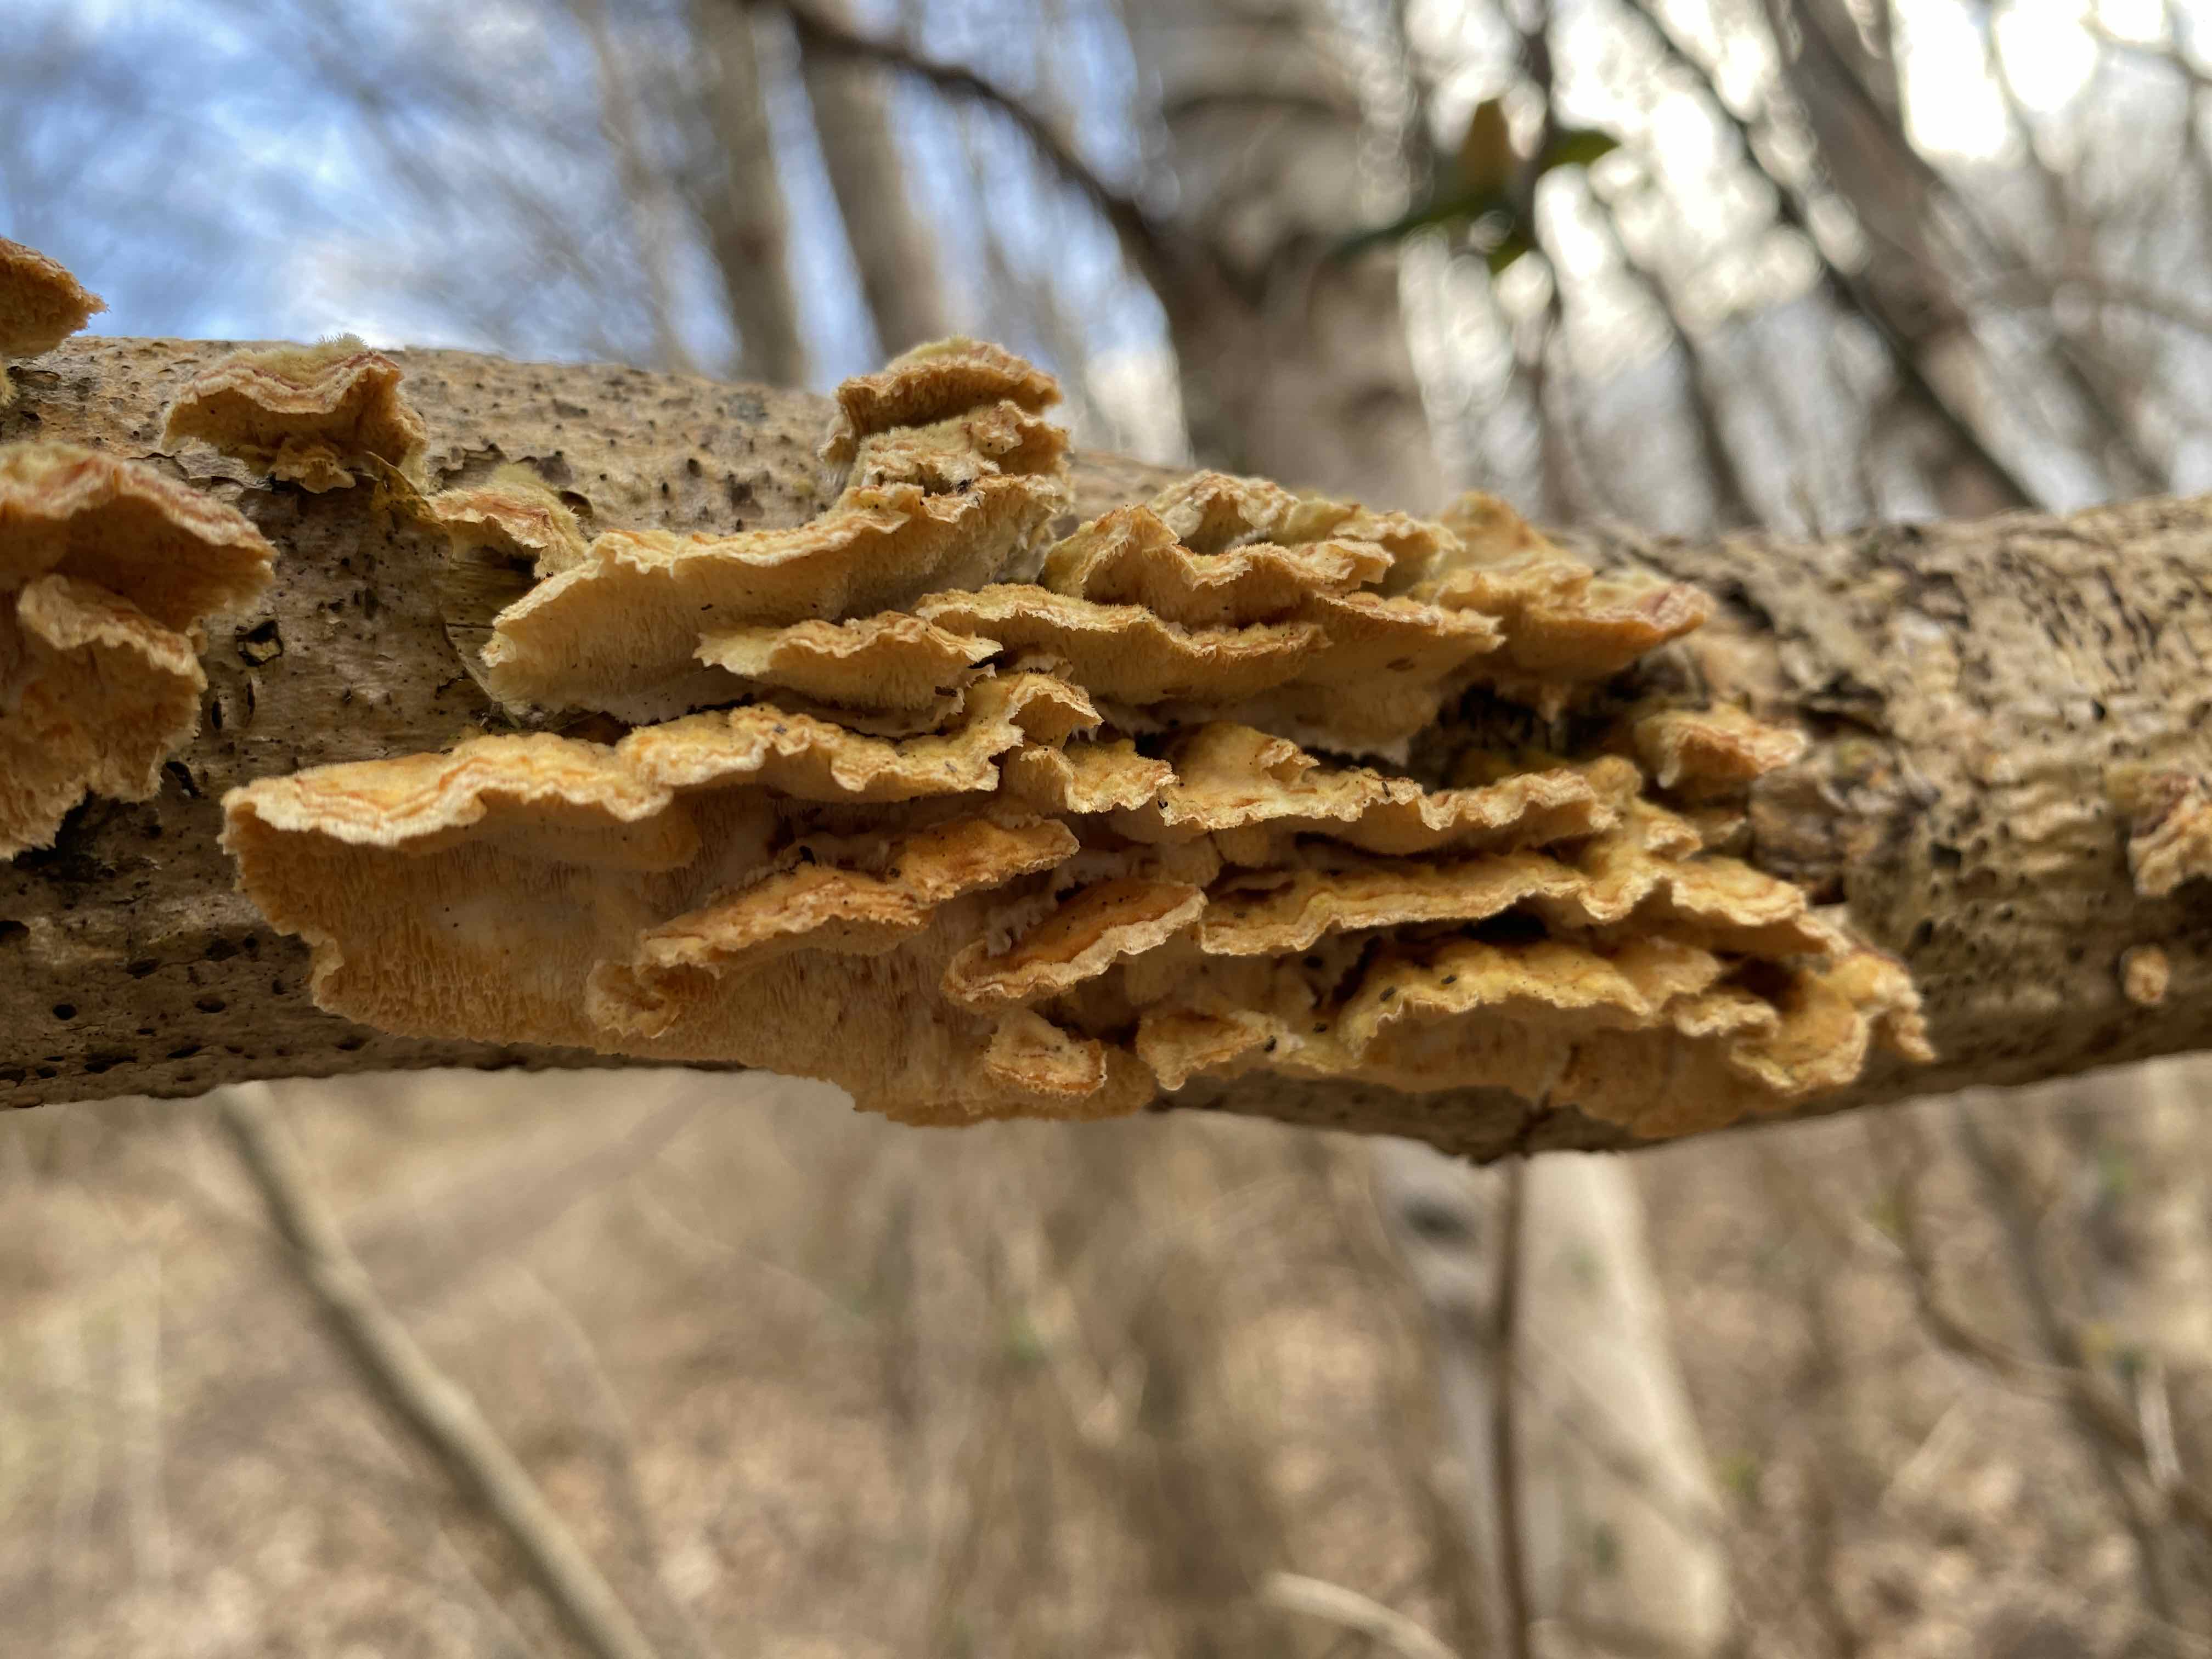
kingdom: Fungi
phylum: Basidiomycota
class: Agaricomycetes
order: Polyporales
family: Polyporaceae
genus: Trametes
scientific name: Trametes hirsuta
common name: håret læderporesvamp
